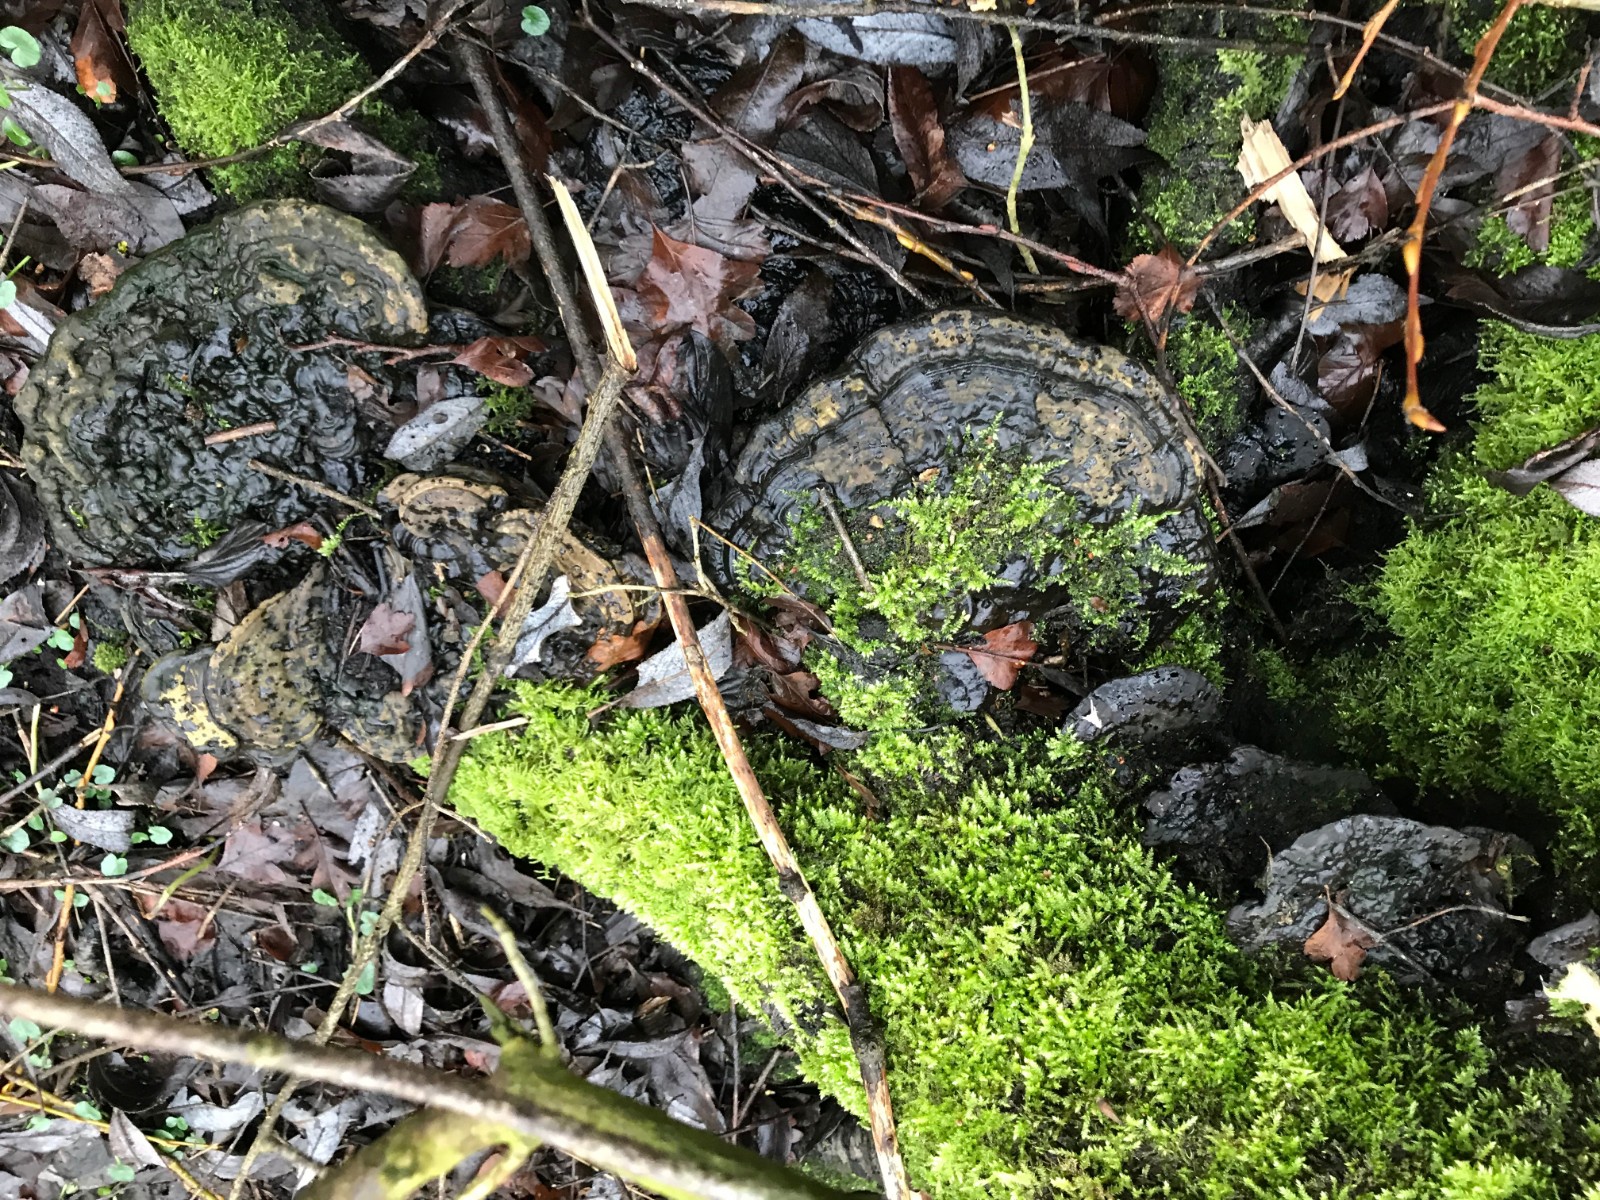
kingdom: Fungi
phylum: Basidiomycota
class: Agaricomycetes
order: Polyporales
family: Polyporaceae
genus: Ganoderma
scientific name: Ganoderma applanatum
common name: flad lakporesvamp
